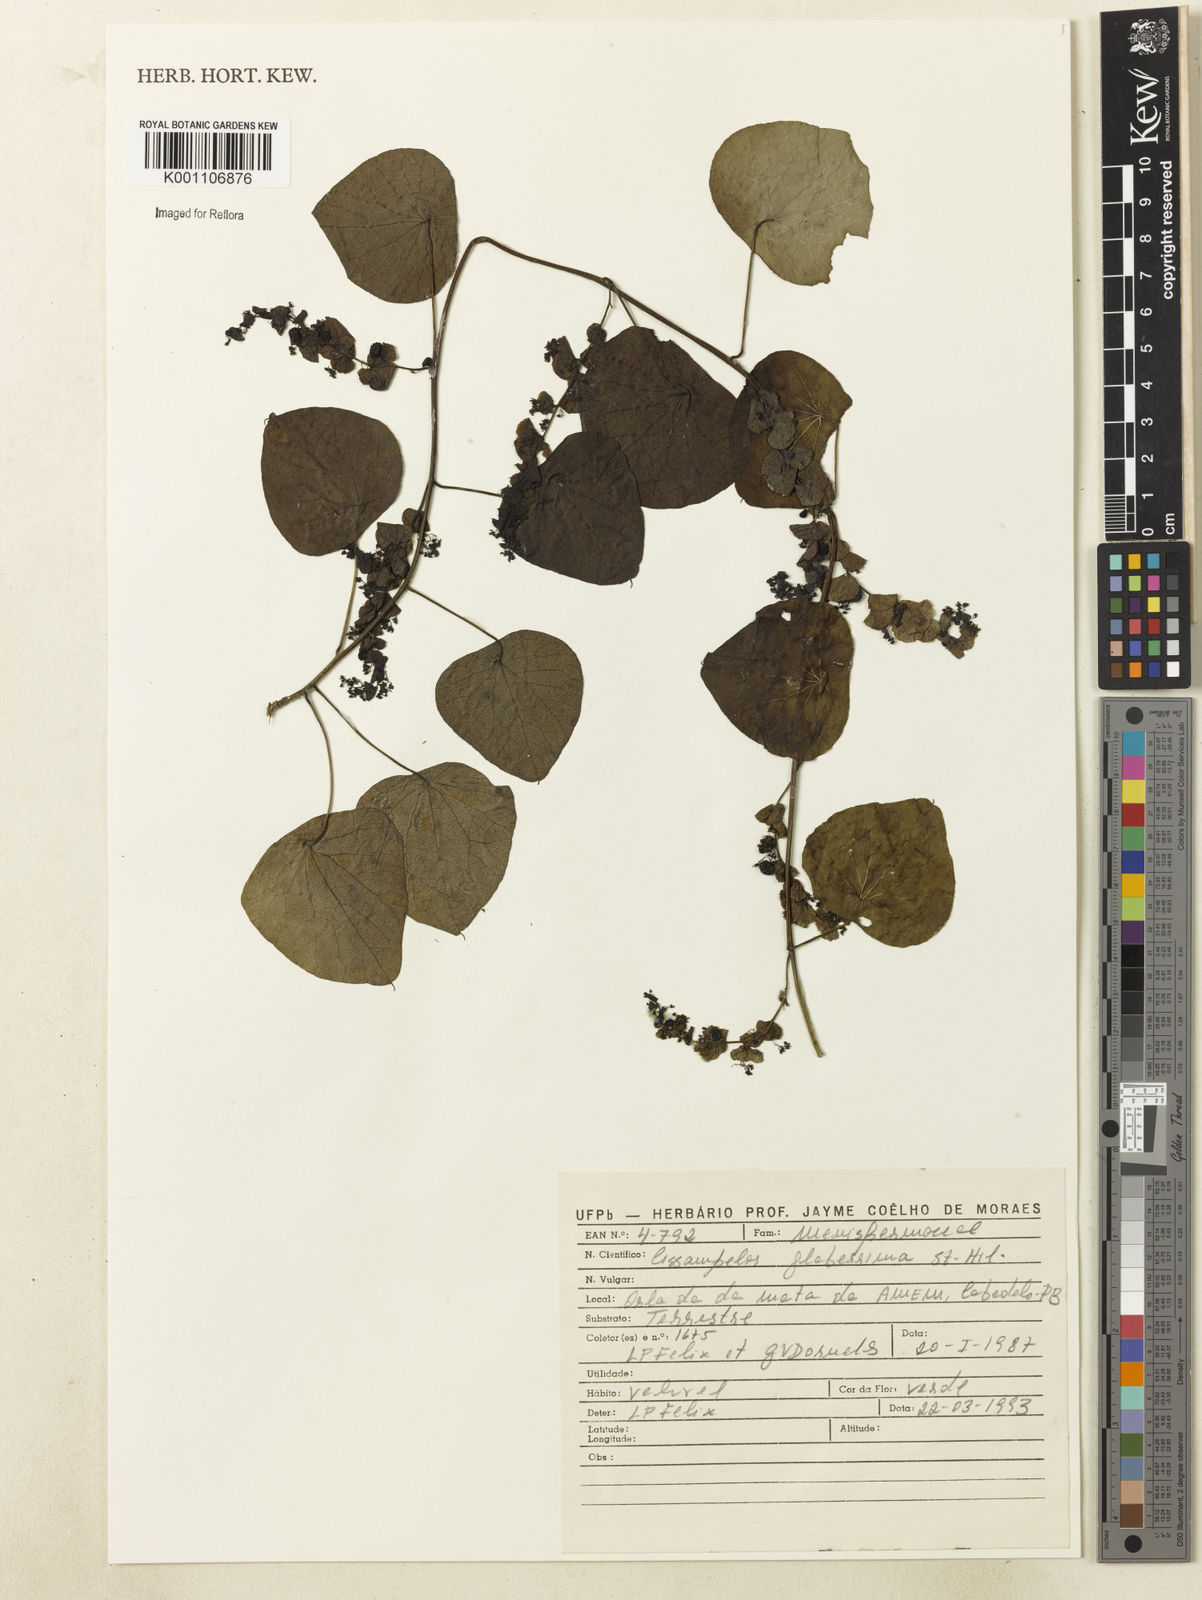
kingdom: Plantae
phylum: Tracheophyta
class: Magnoliopsida
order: Ranunculales
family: Menispermaceae
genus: Cissampelos
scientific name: Cissampelos glaberrima
